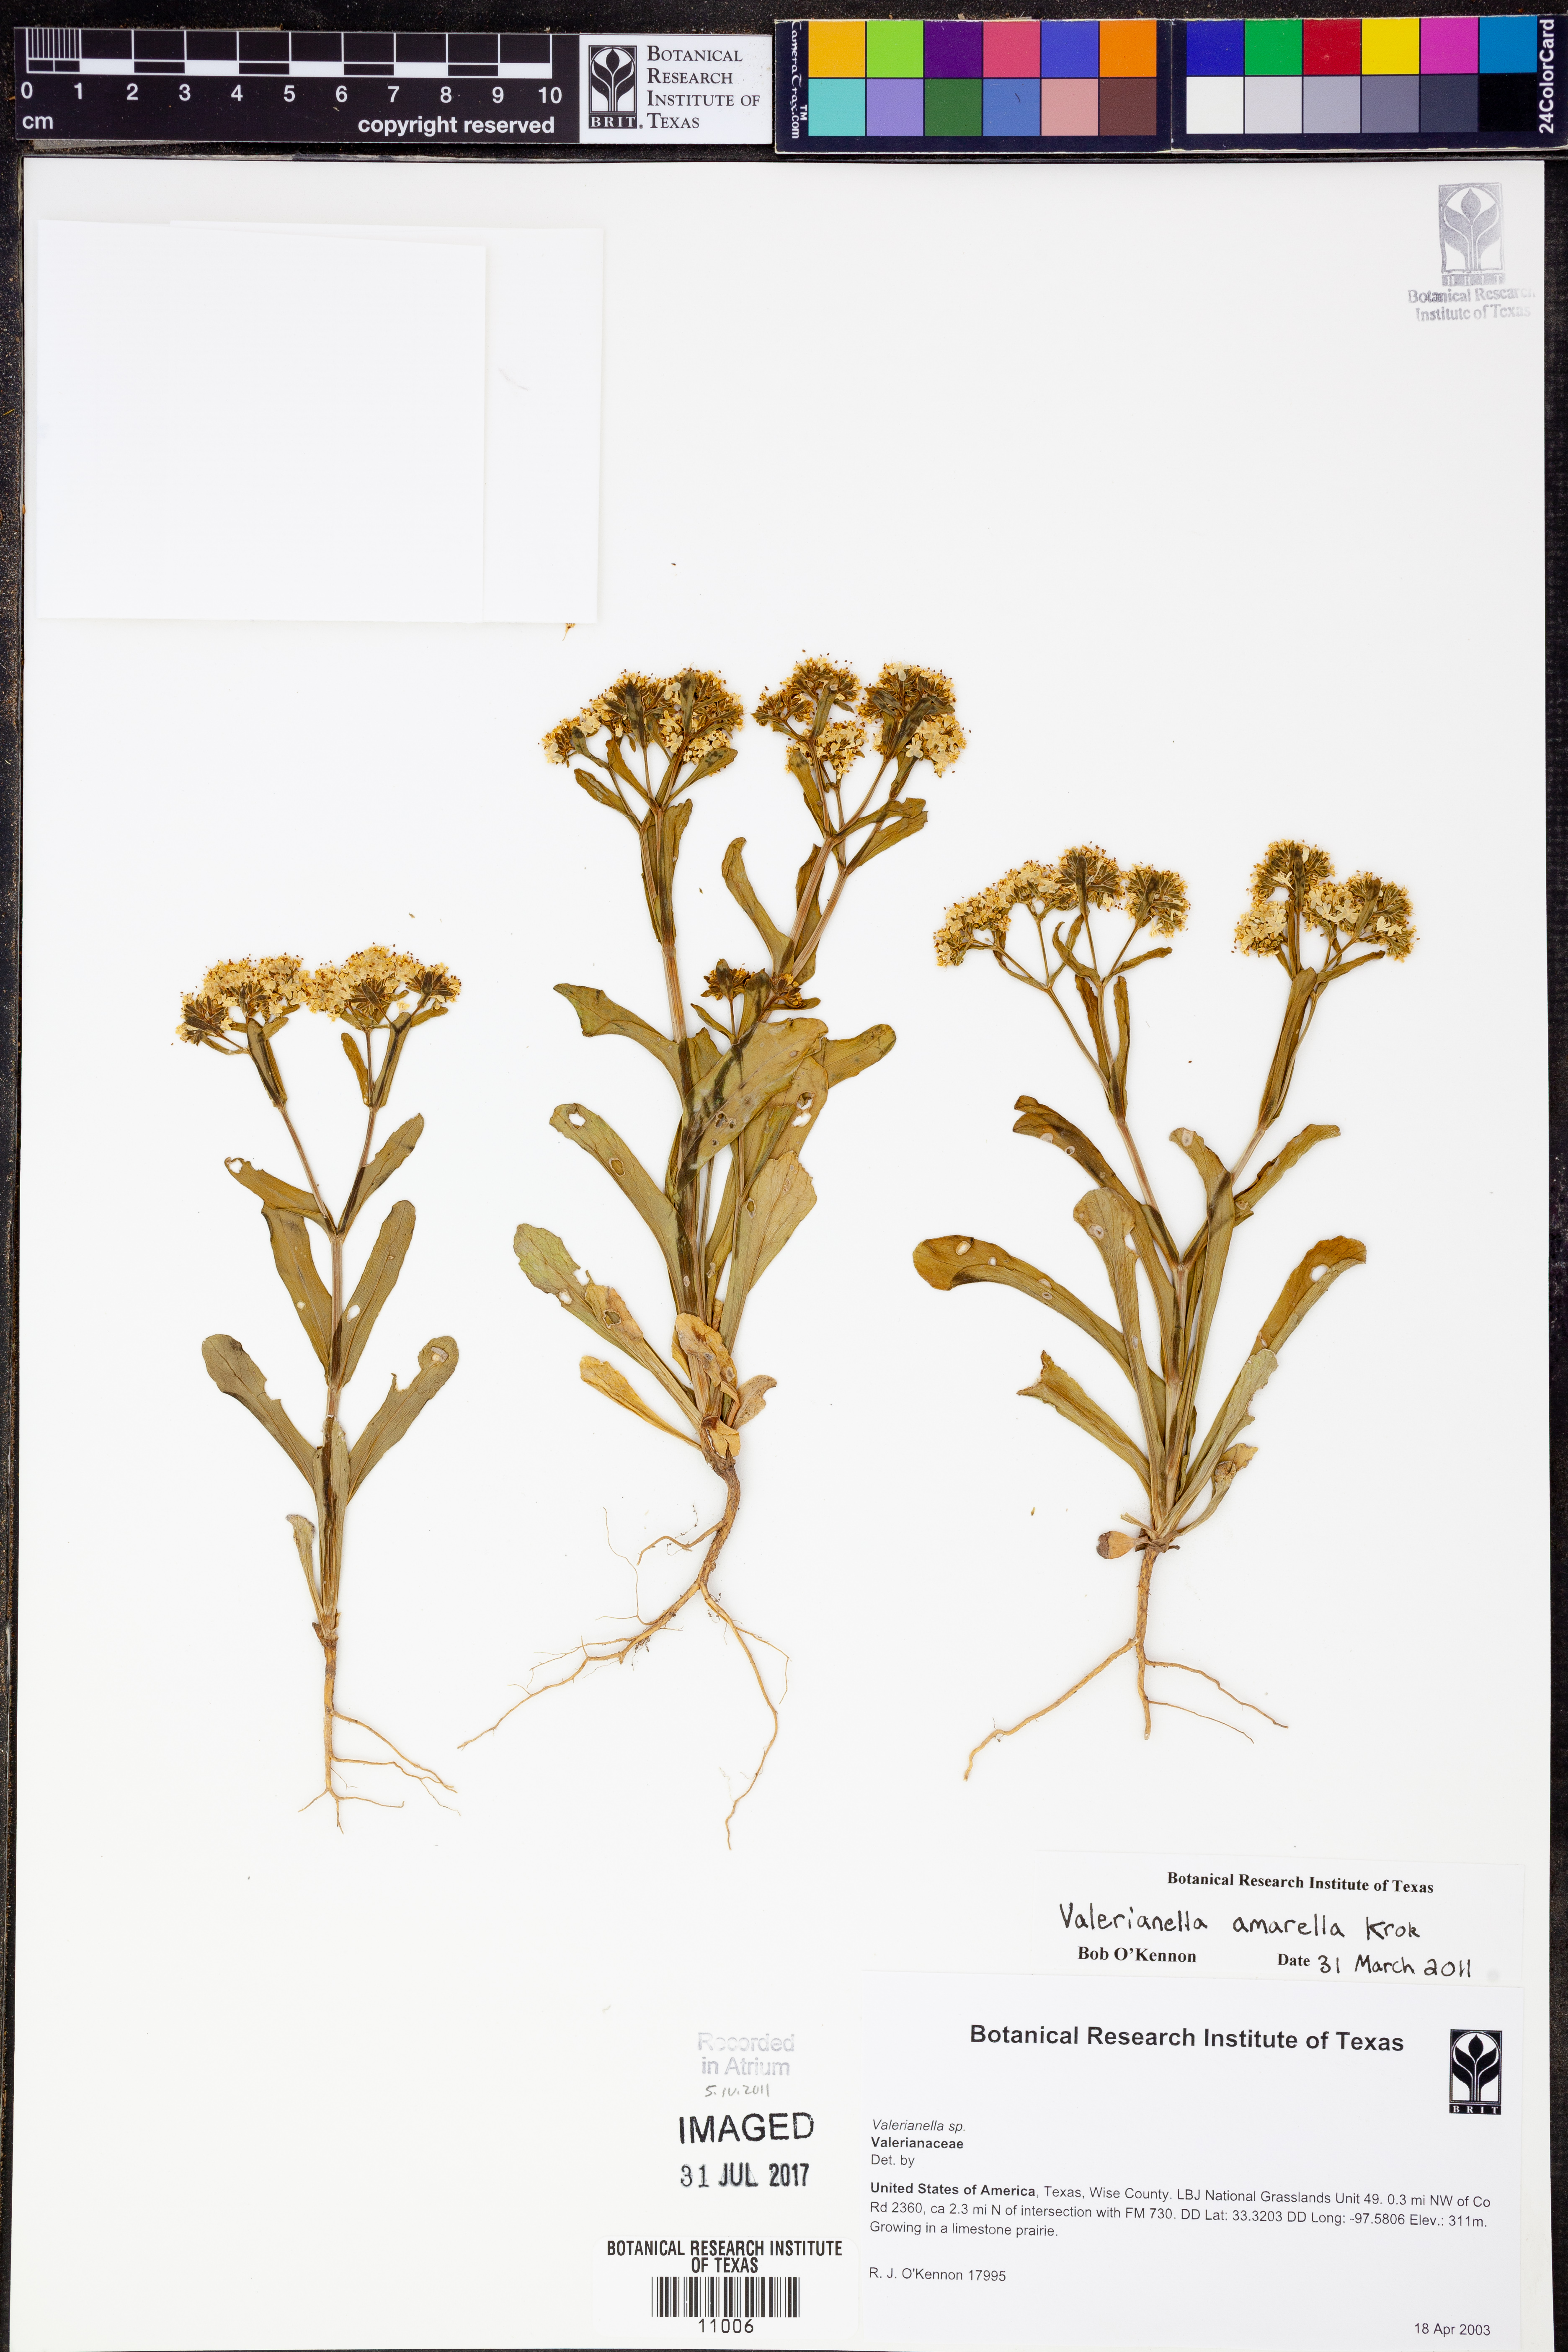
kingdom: Plantae
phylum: Tracheophyta
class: Magnoliopsida
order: Dipsacales
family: Caprifoliaceae
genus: Valerianella
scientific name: Valerianella amarella
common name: Hariy cornsalad
